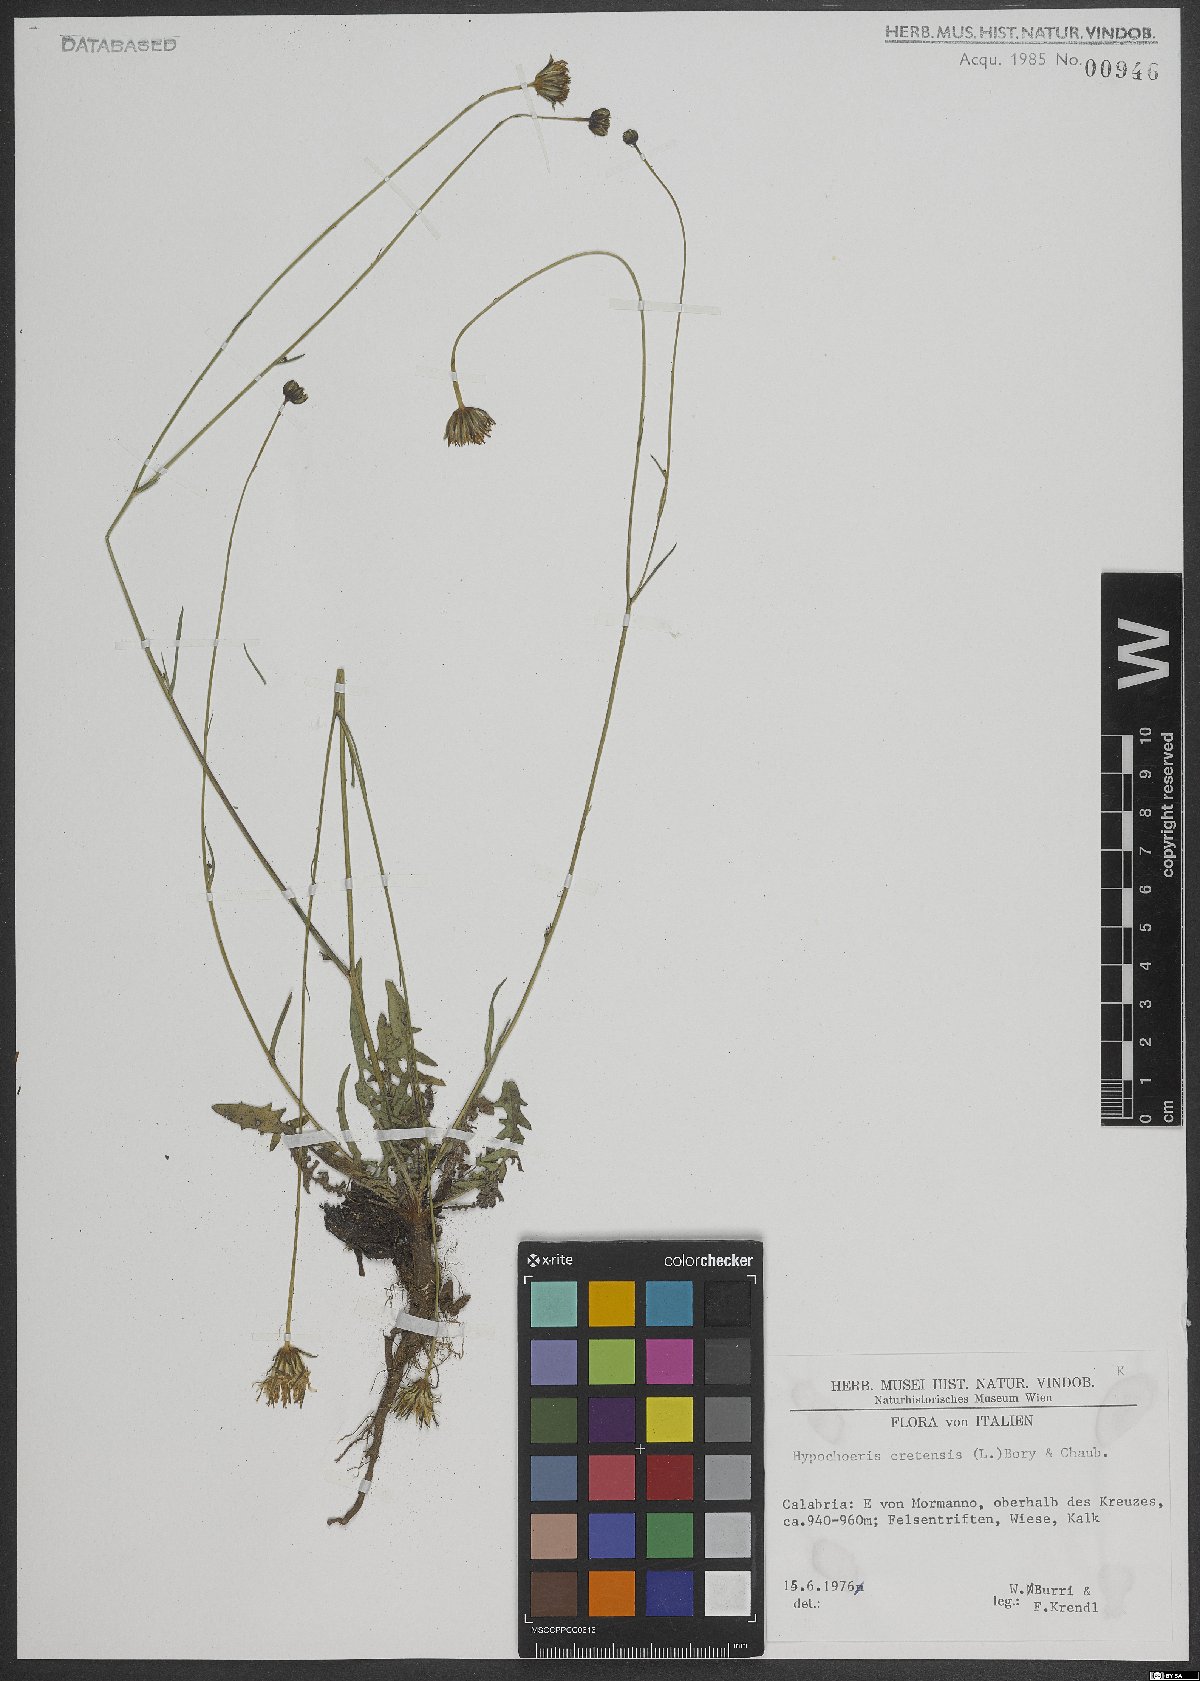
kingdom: Plantae
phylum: Tracheophyta
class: Magnoliopsida
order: Asterales
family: Asteraceae
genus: Hypochaeris
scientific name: Hypochaeris cretensis
